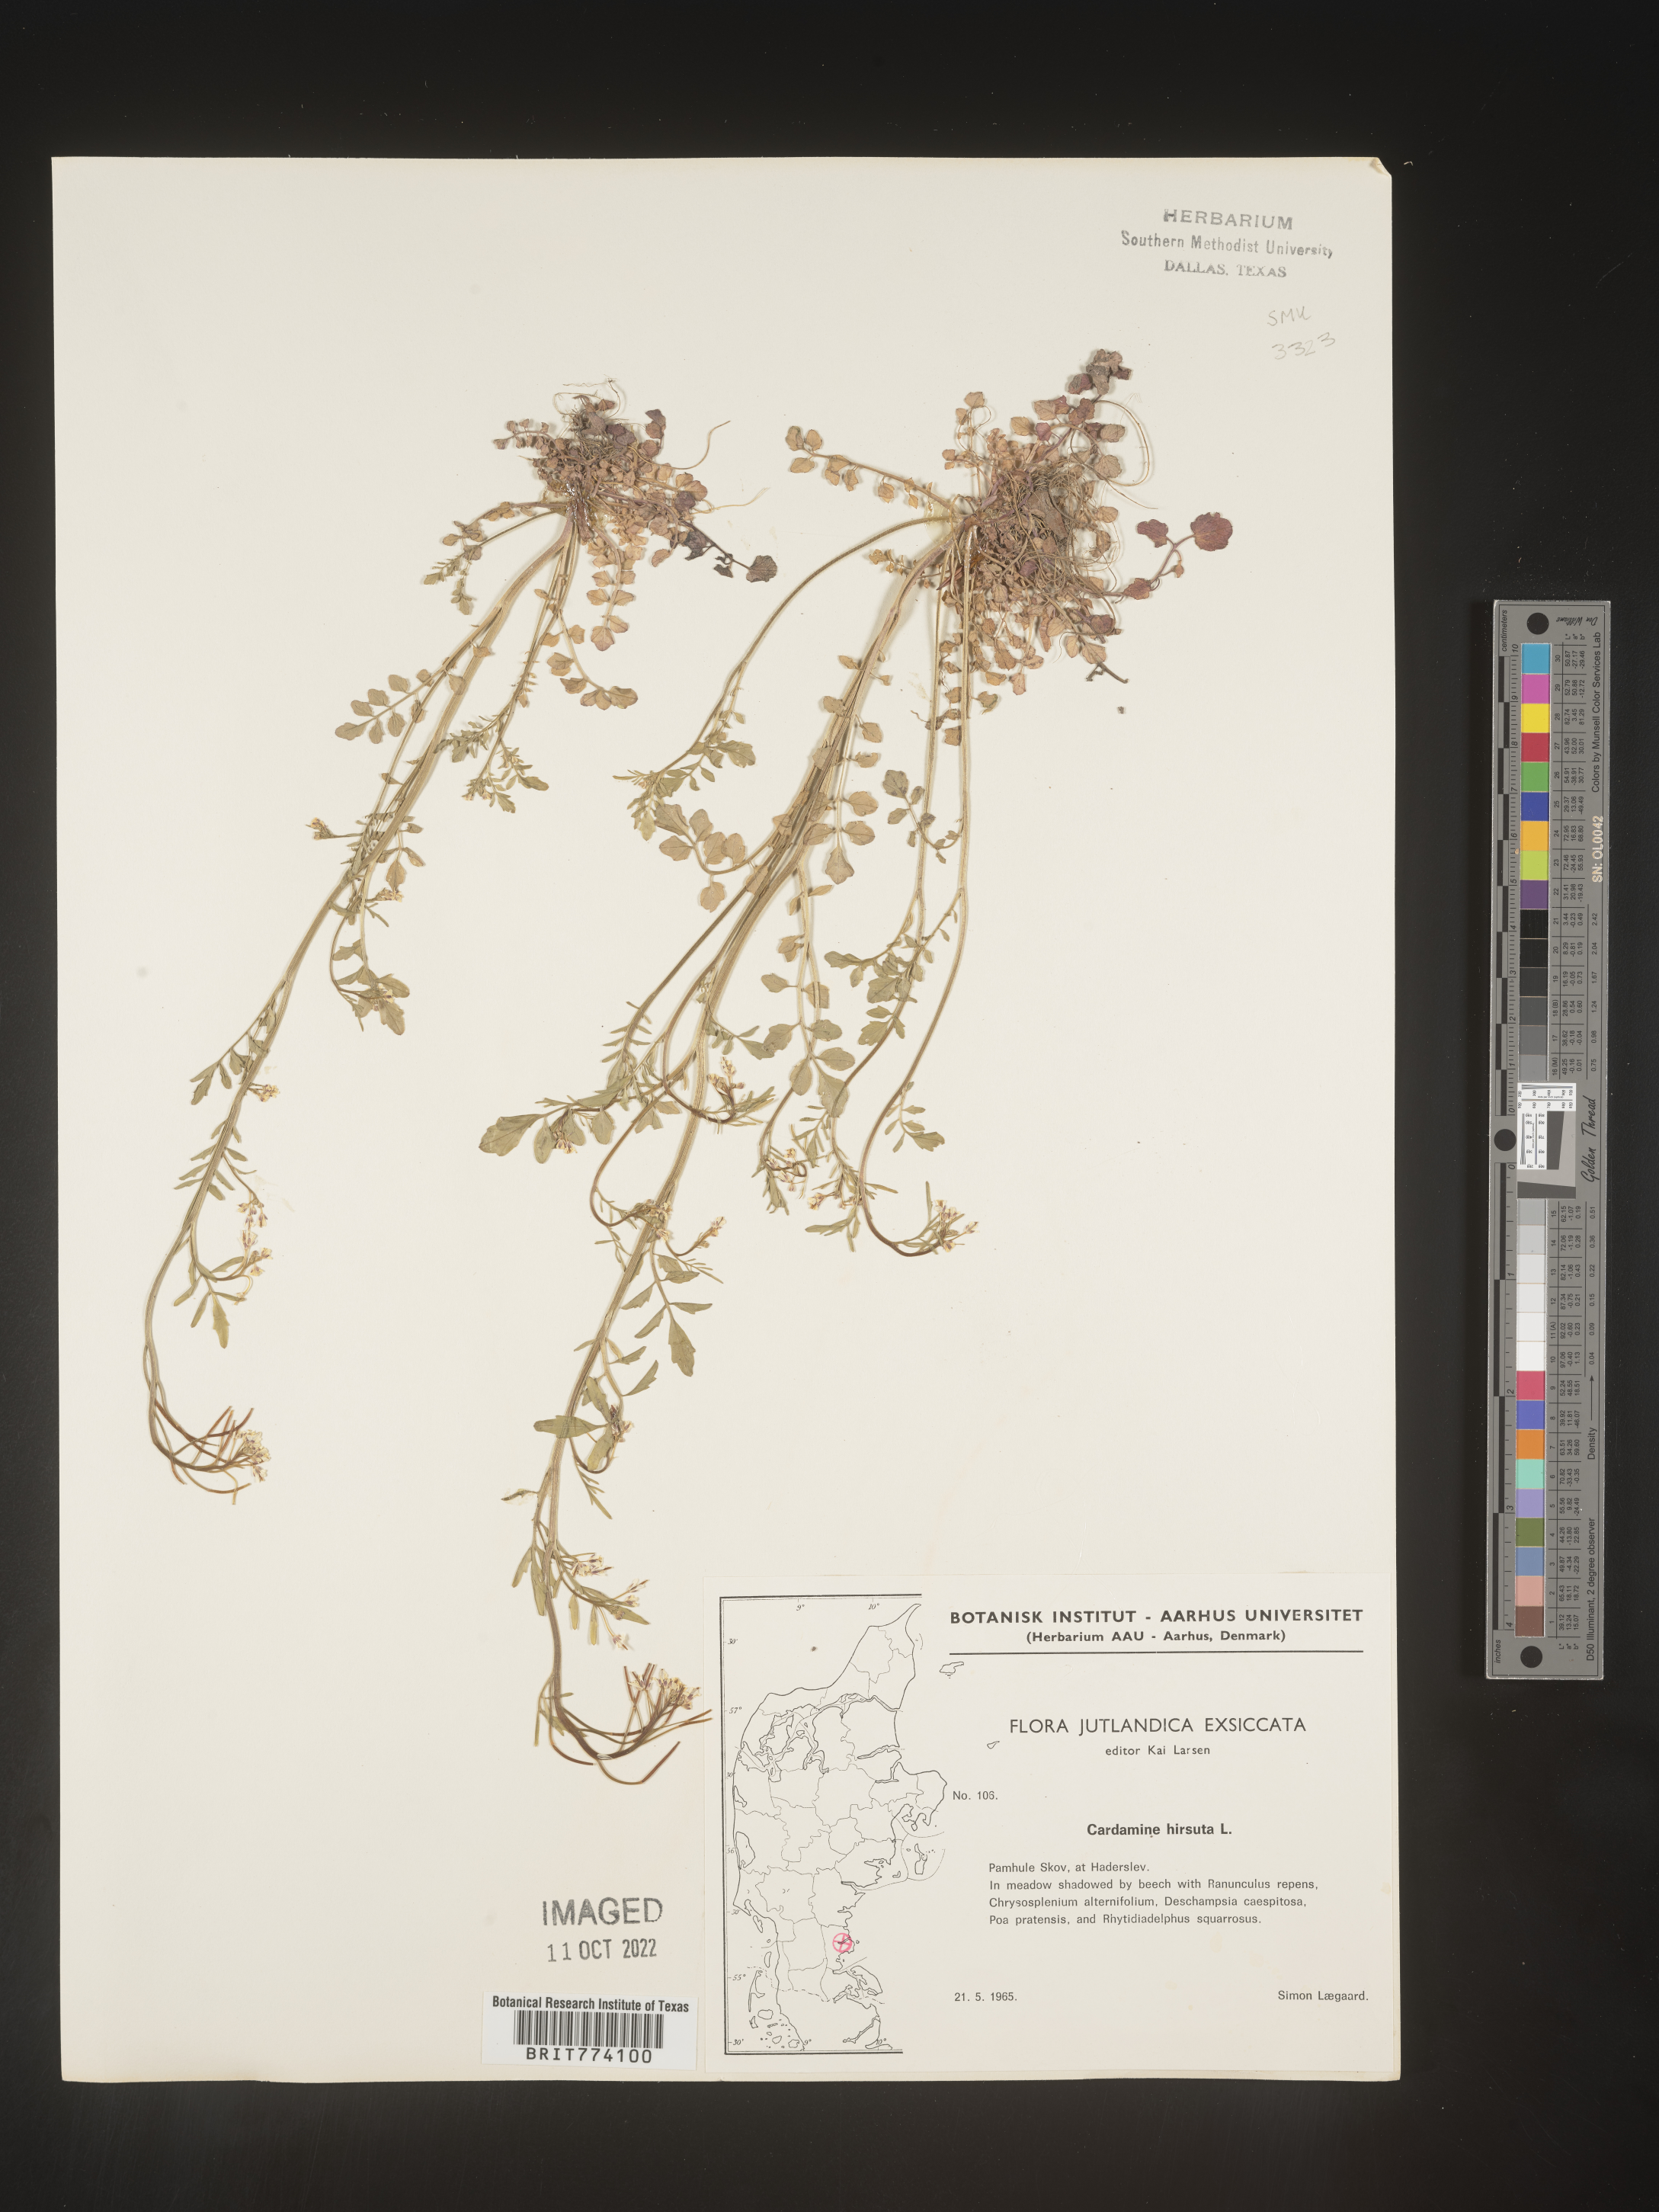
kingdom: Plantae
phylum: Tracheophyta
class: Magnoliopsida
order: Brassicales
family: Brassicaceae
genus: Cardamine
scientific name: Cardamine hirsuta
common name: Hairy bittercress
